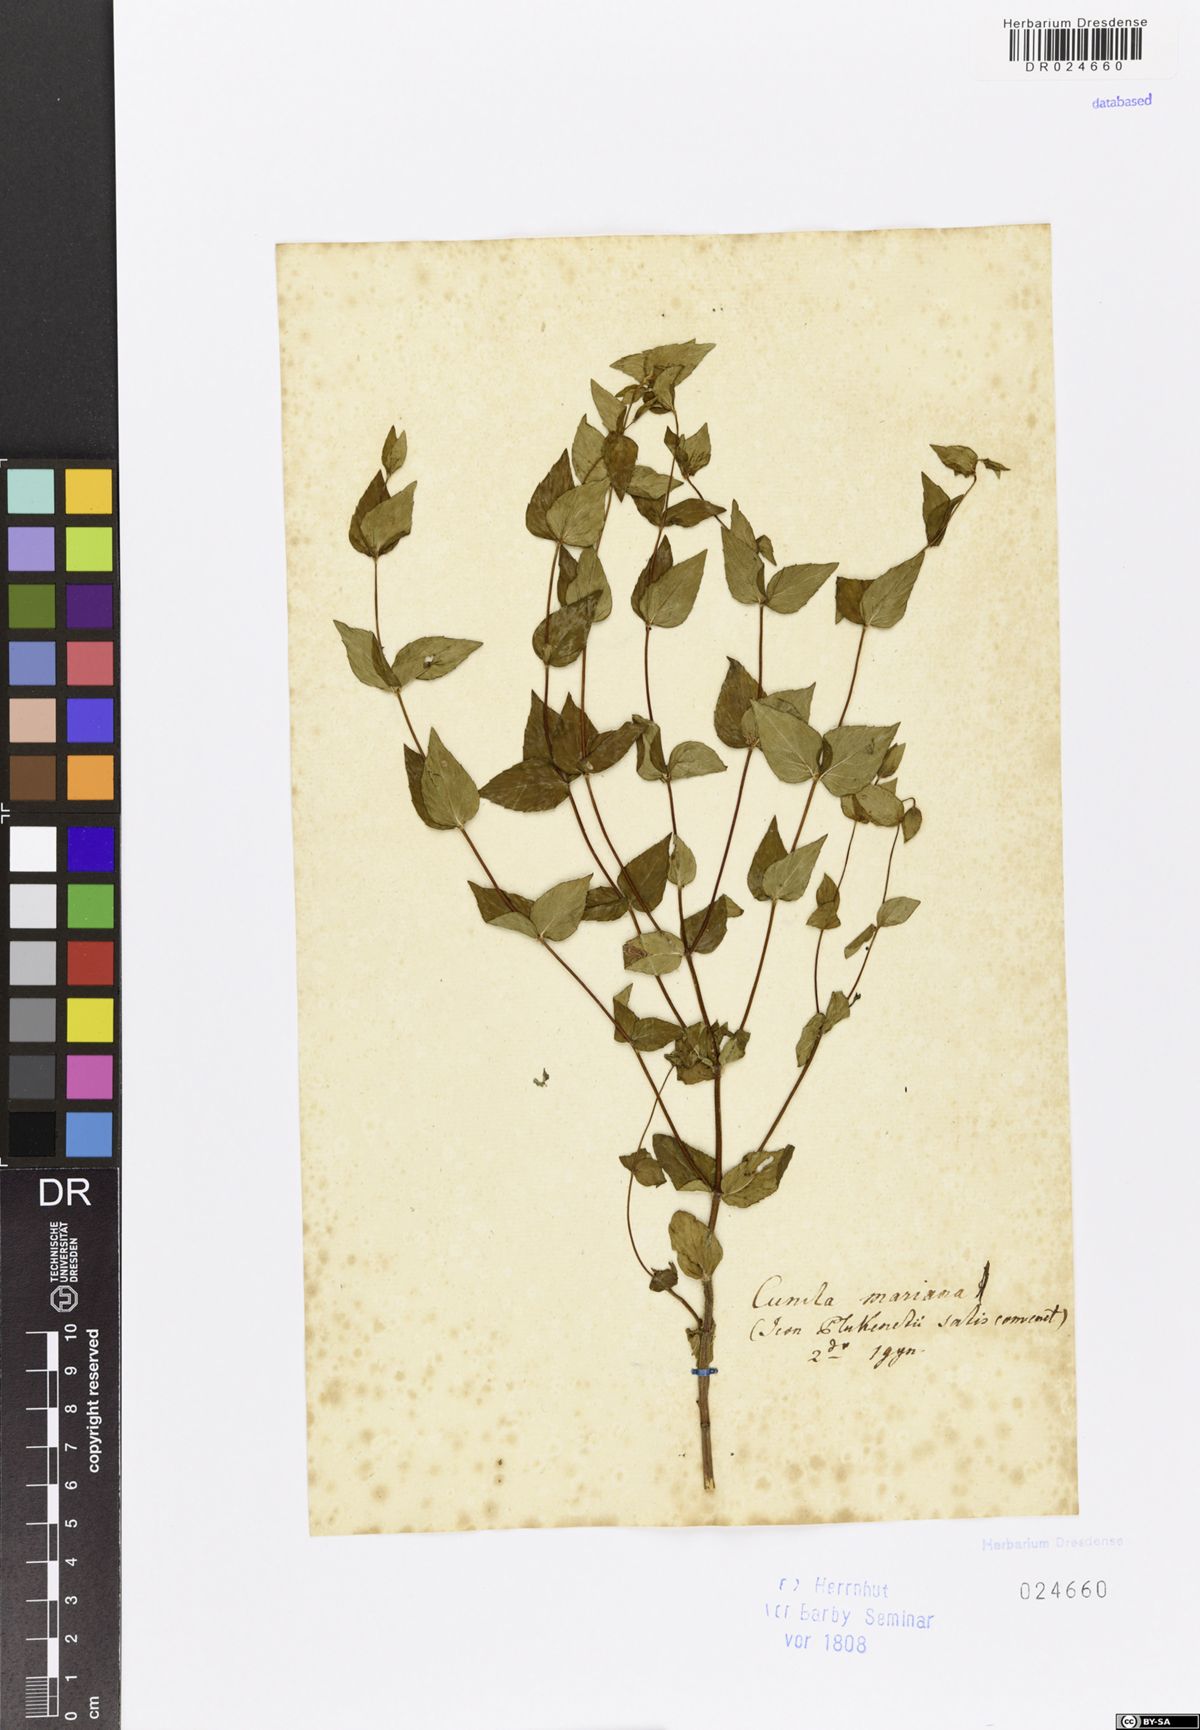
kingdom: Plantae
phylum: Tracheophyta
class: Magnoliopsida
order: Lamiales
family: Lamiaceae
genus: Cunila
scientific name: Cunila origanoides
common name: American dittany
